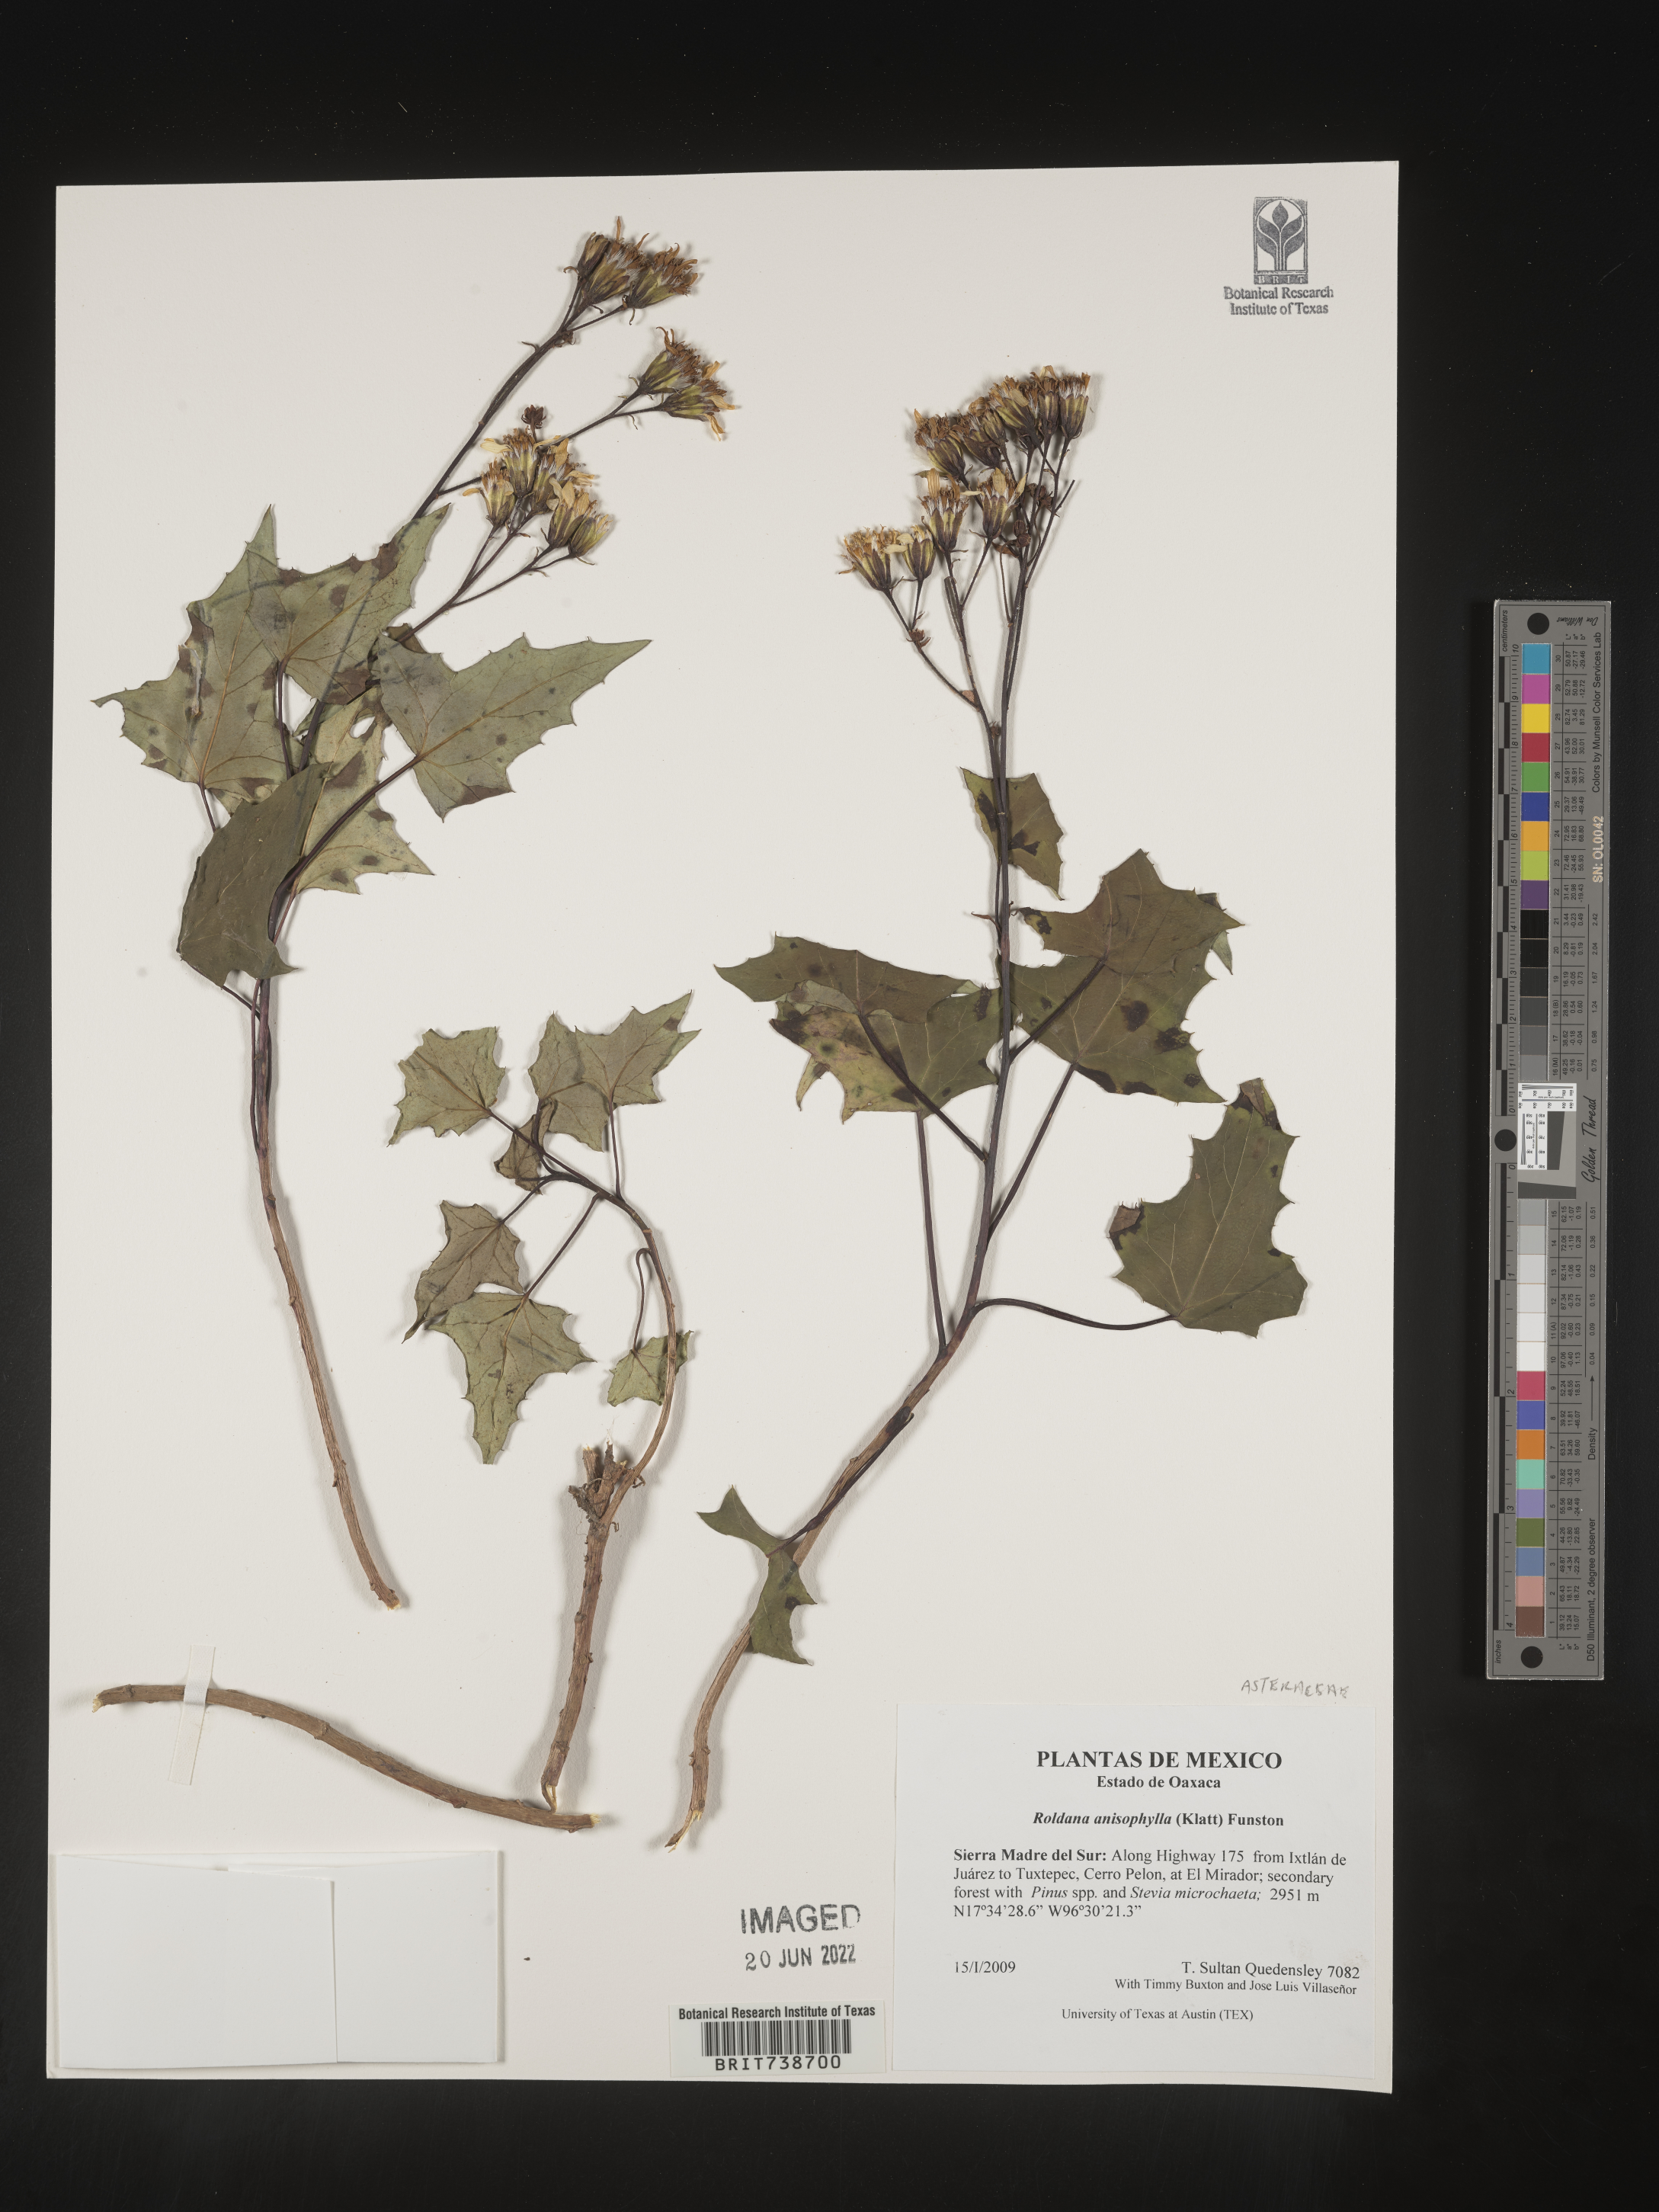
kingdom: Plantae
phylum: Tracheophyta
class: Magnoliopsida
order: Asterales
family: Asteraceae
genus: Roldana
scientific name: Roldana
